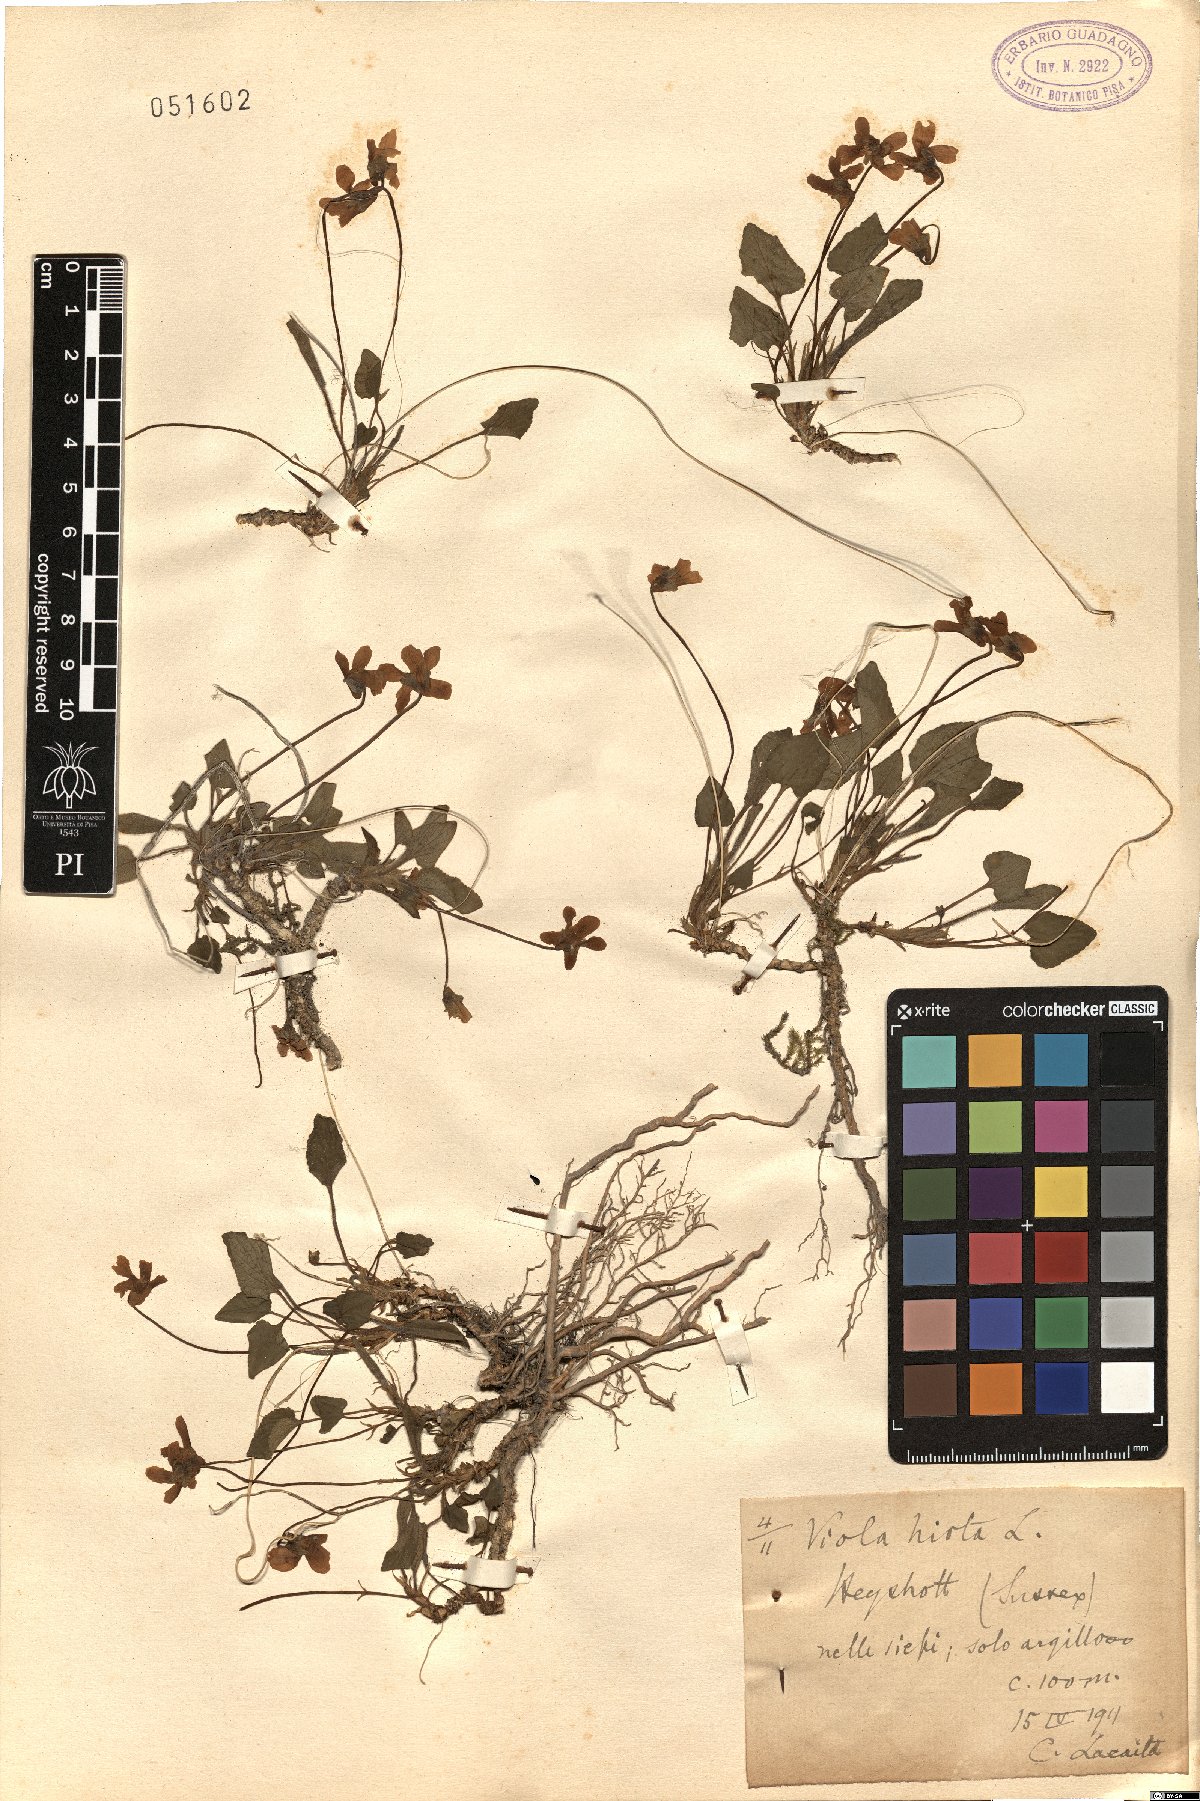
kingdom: Plantae
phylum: Tracheophyta
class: Magnoliopsida
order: Malpighiales
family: Violaceae
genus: Viola
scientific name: Viola hirta
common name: Hairy violet
